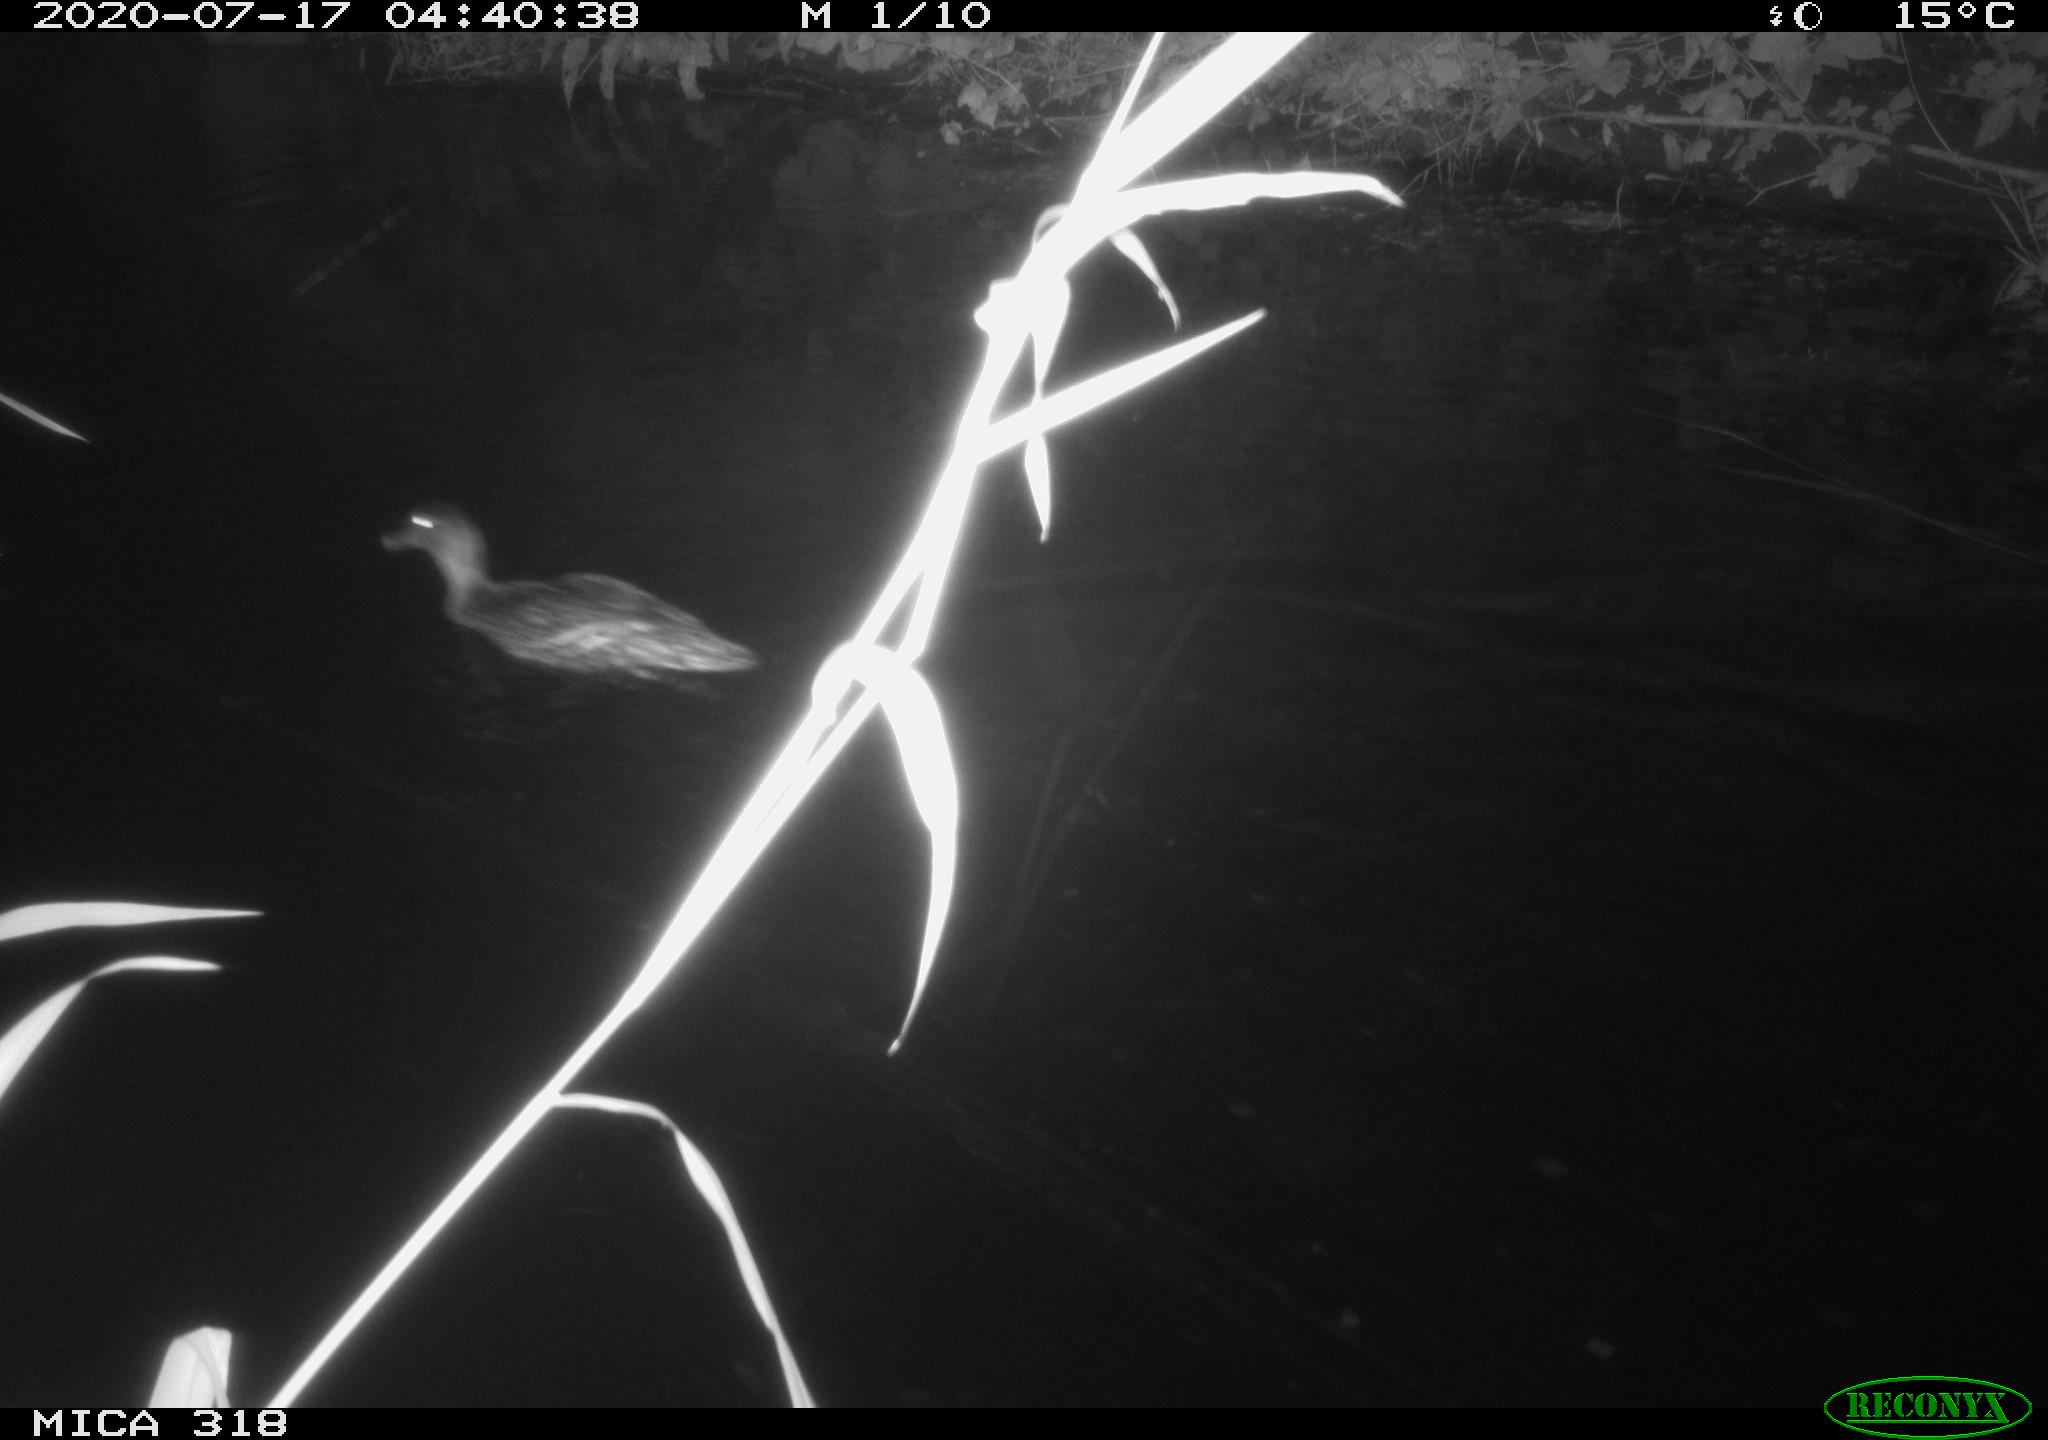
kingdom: Animalia
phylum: Chordata
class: Aves
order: Anseriformes
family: Anatidae
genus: Anas
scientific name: Anas platyrhynchos
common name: Mallard
